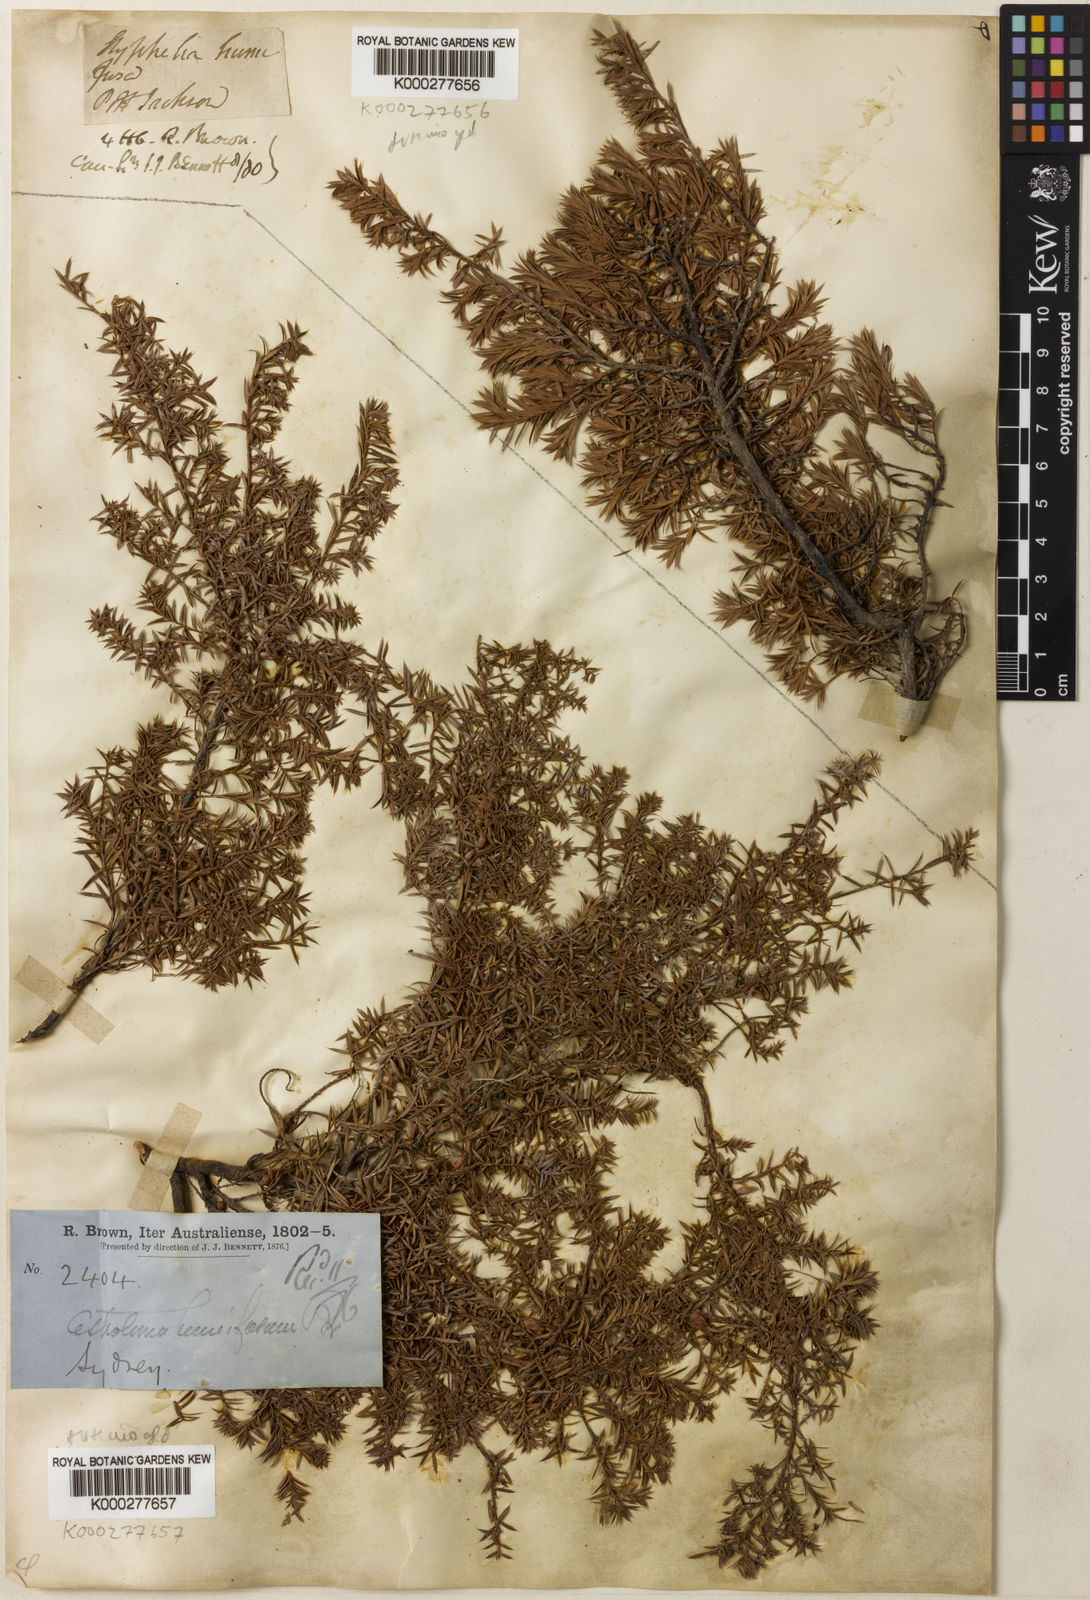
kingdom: Plantae
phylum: Tracheophyta
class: Magnoliopsida
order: Ericales
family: Ericaceae
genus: Styphelia
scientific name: Styphelia humifusa
